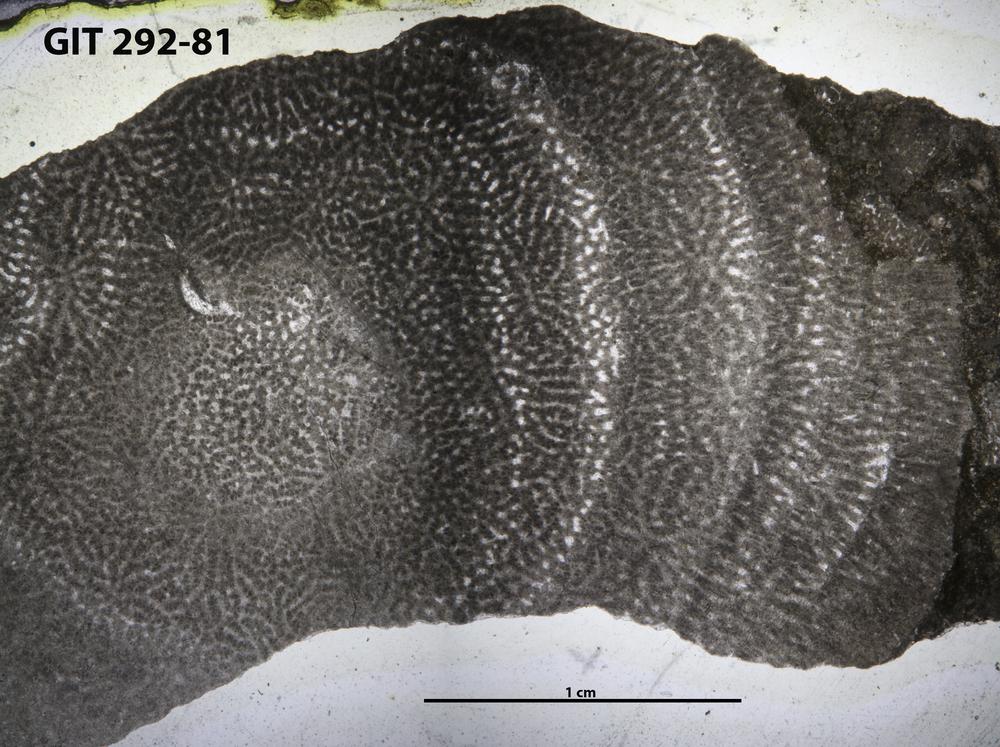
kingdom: Animalia
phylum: Porifera
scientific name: Porifera
